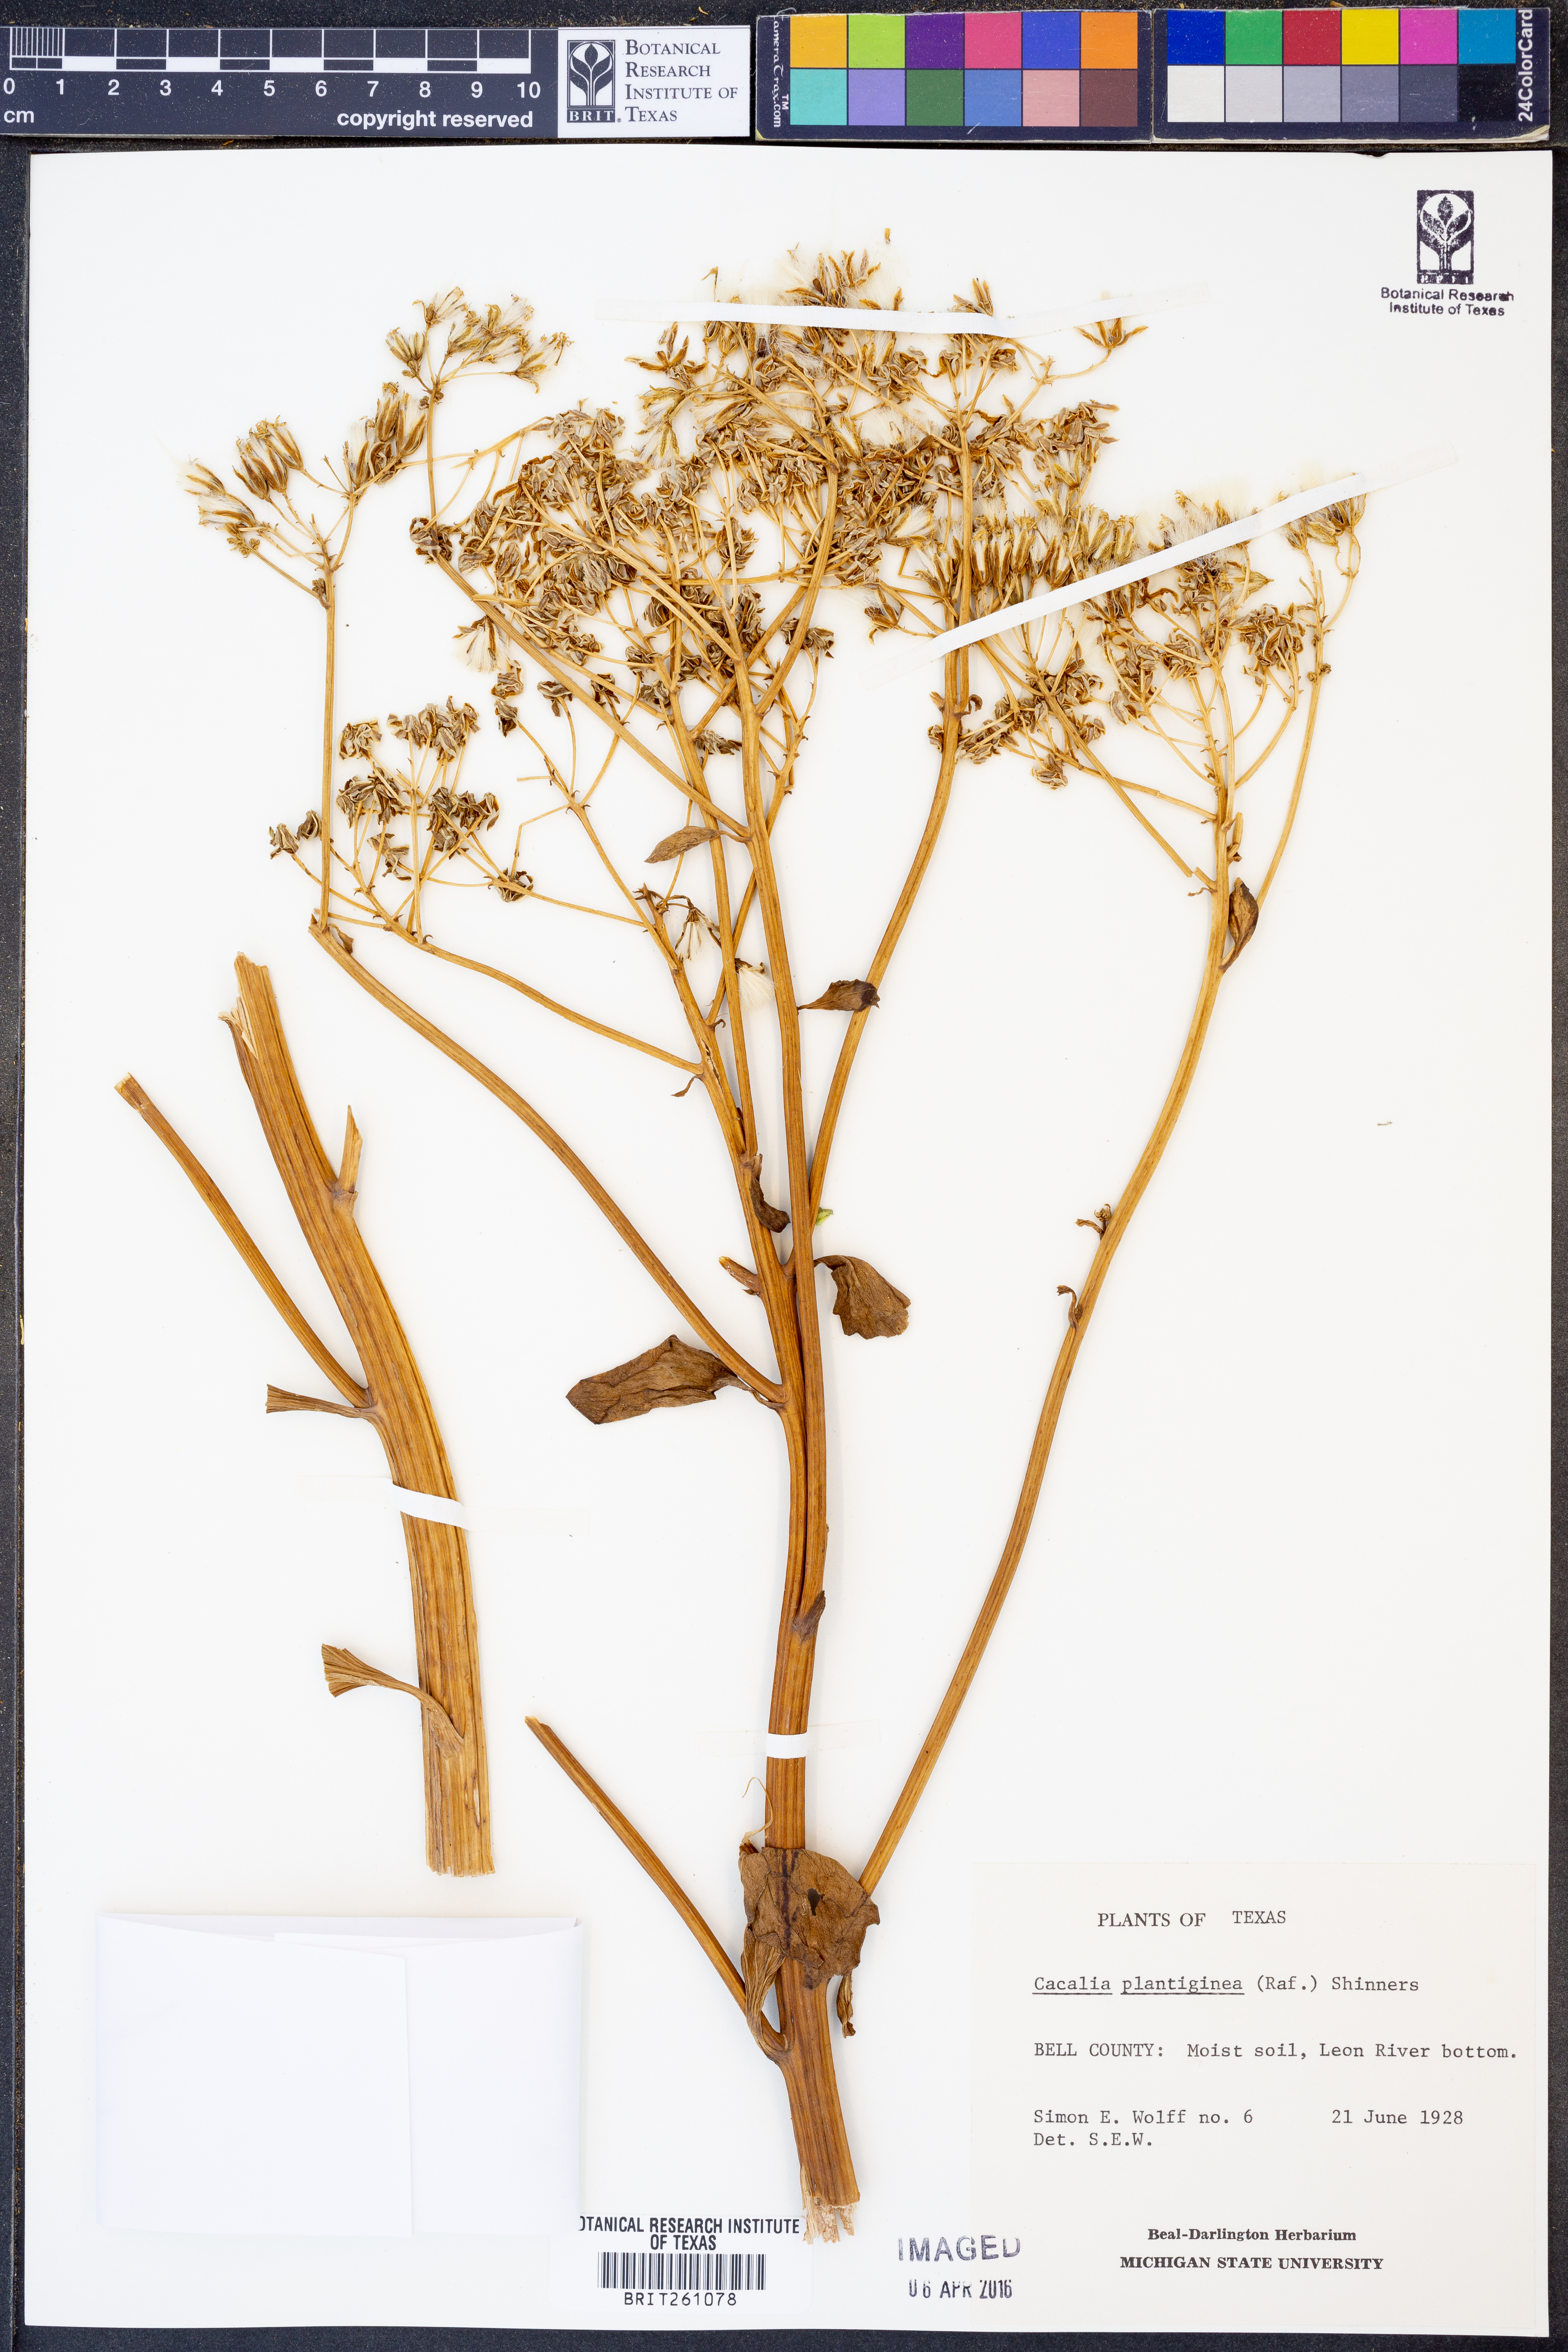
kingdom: Plantae
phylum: Tracheophyta
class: Magnoliopsida
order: Asterales
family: Asteraceae
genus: Arnoglossum
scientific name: Arnoglossum plantagineum
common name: Groove-stemmed indian-plantain
